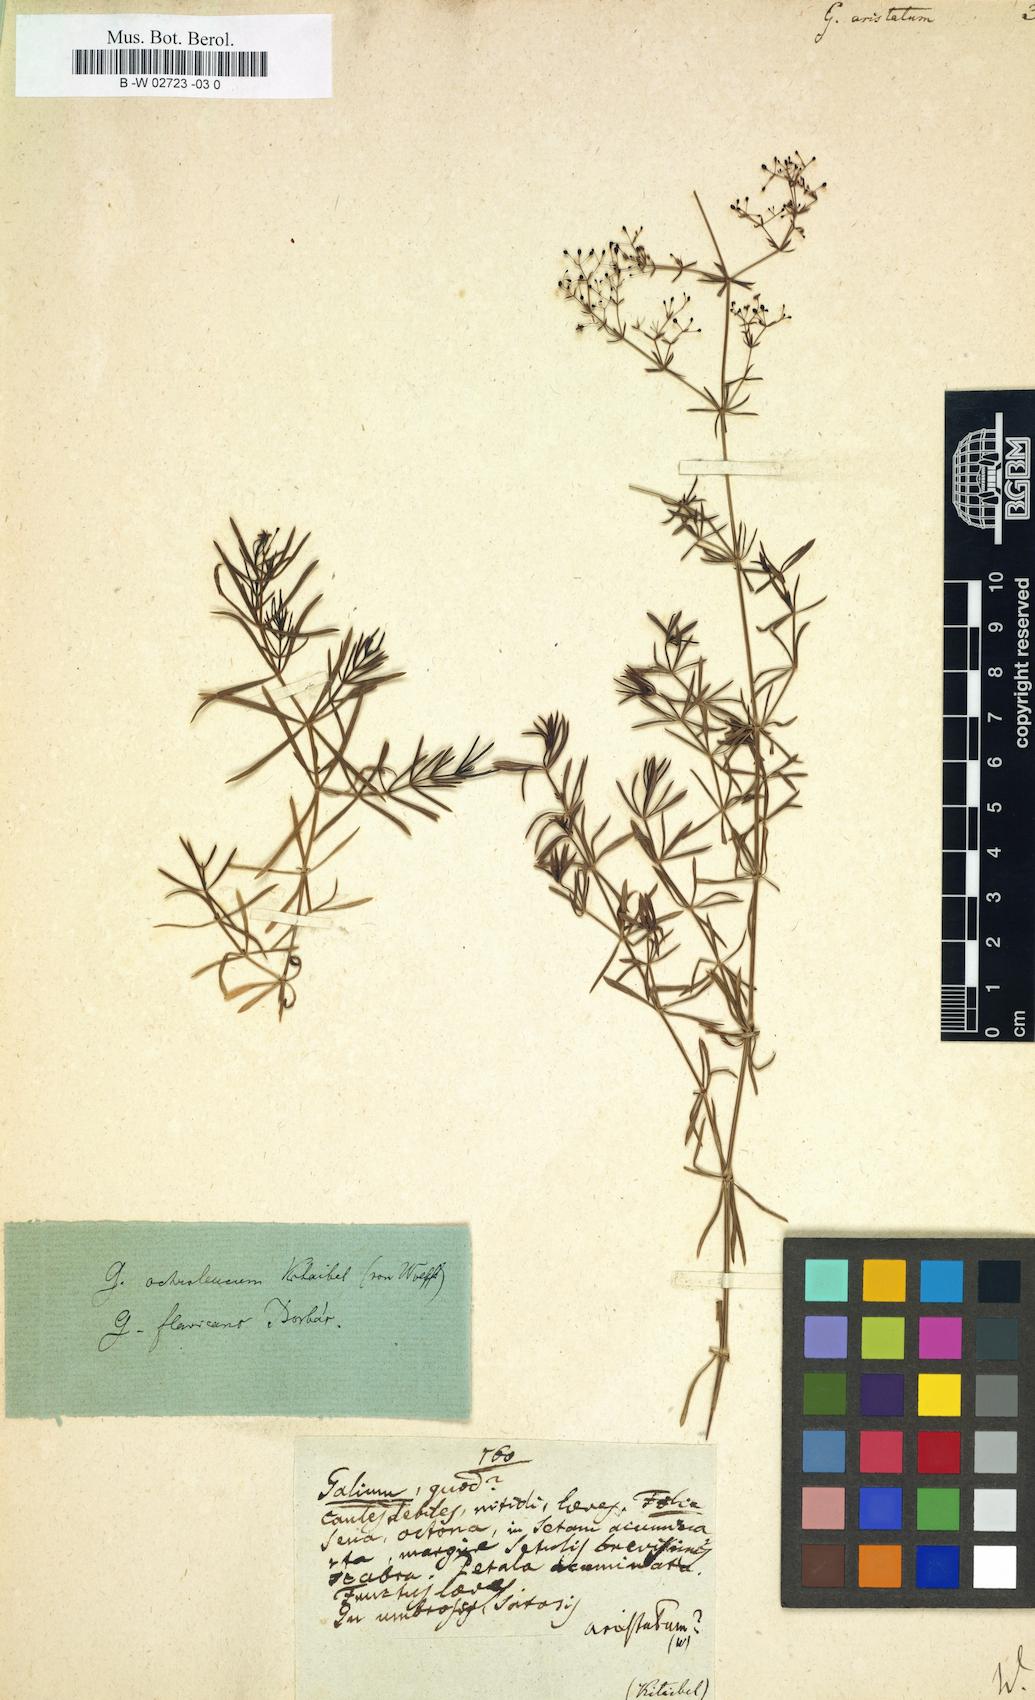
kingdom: Plantae
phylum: Tracheophyta
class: Magnoliopsida
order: Gentianales
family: Rubiaceae
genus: Galium
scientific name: Galium aristatum
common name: Awned bedstraw
